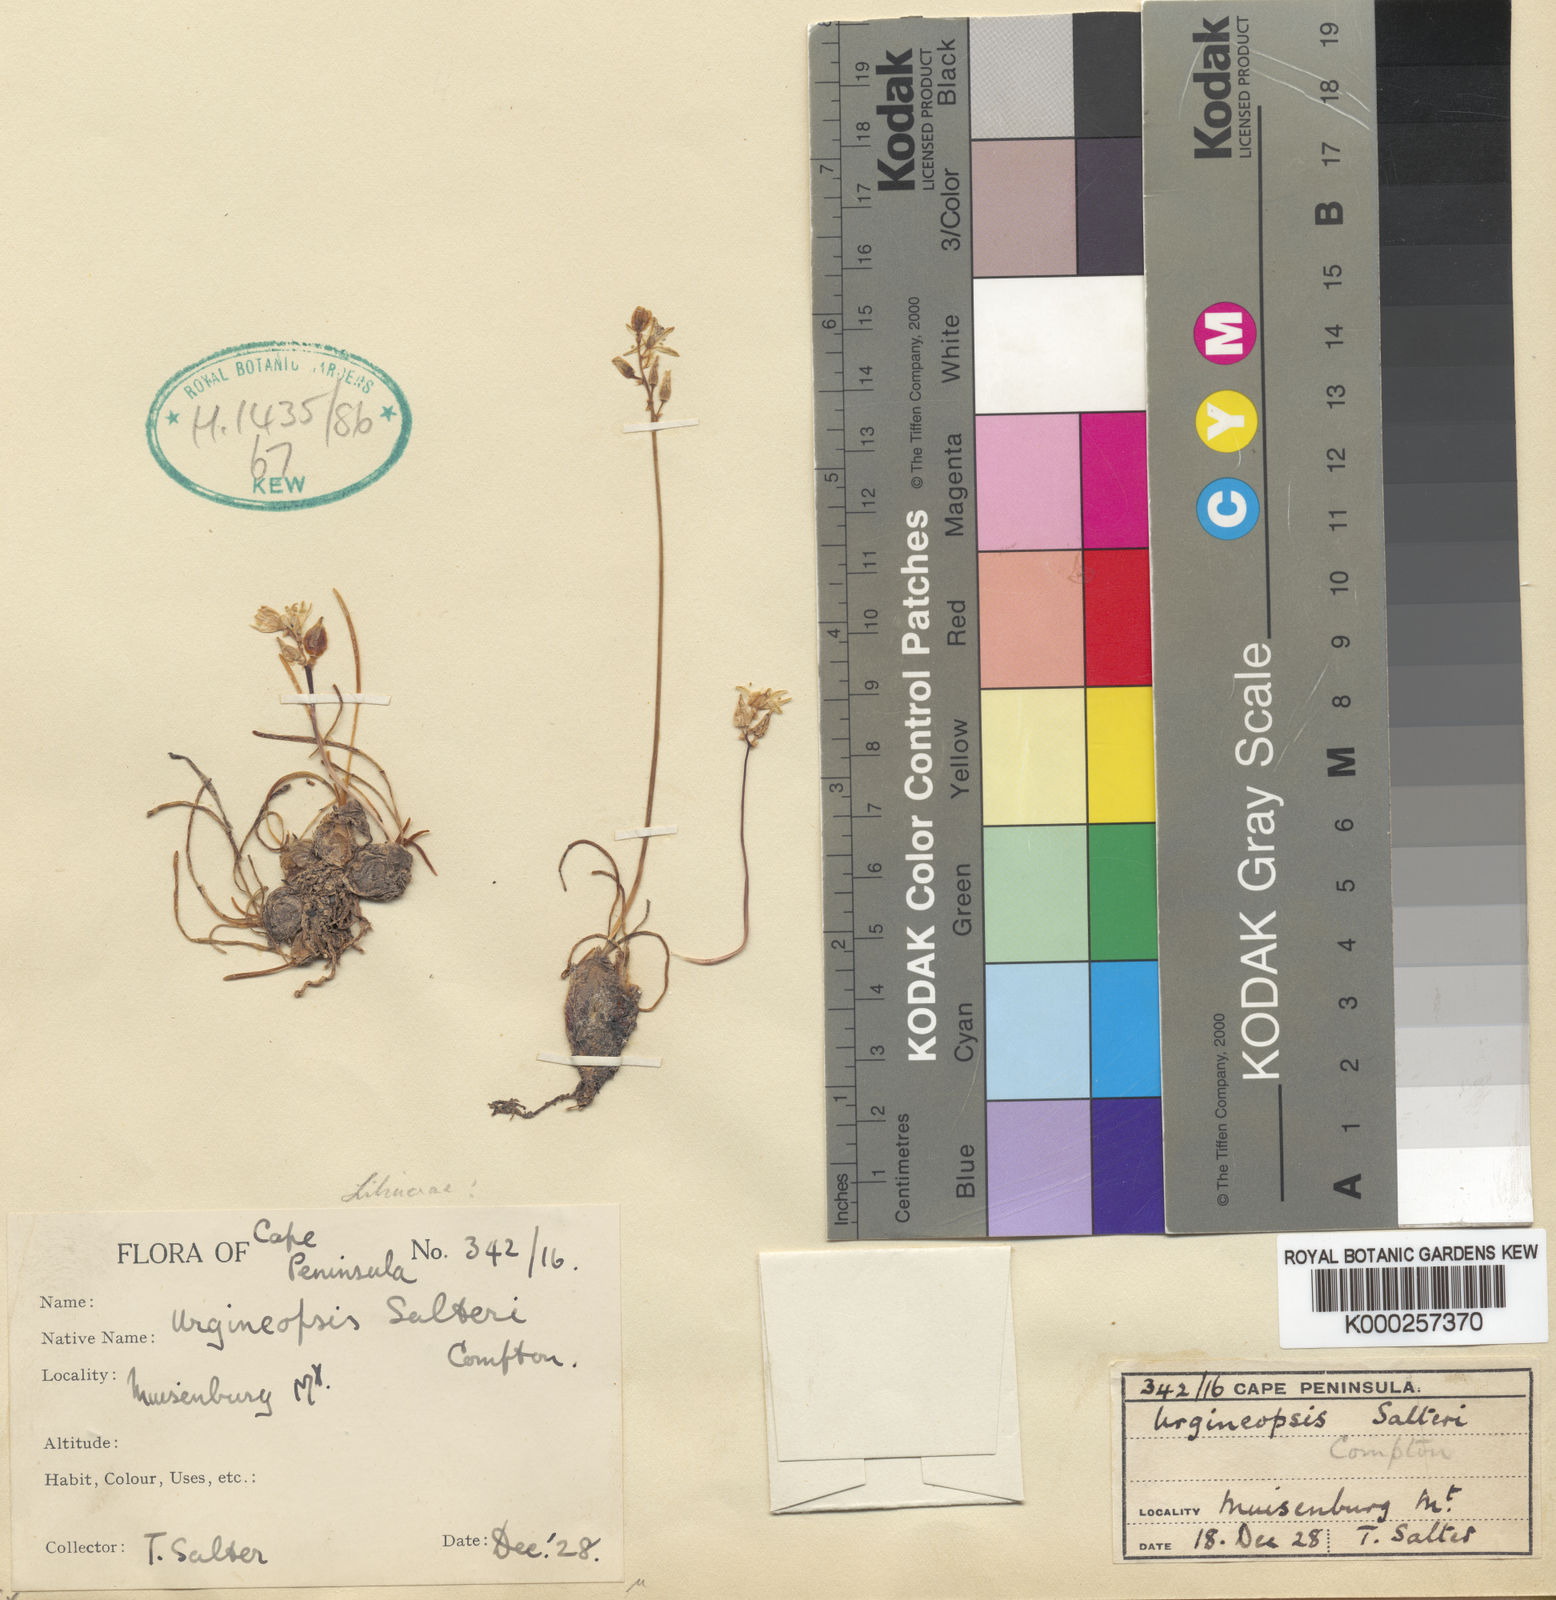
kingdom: Plantae
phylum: Tracheophyta
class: Liliopsida
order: Asparagales
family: Asparagaceae
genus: Drimia
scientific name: Drimia salteri
